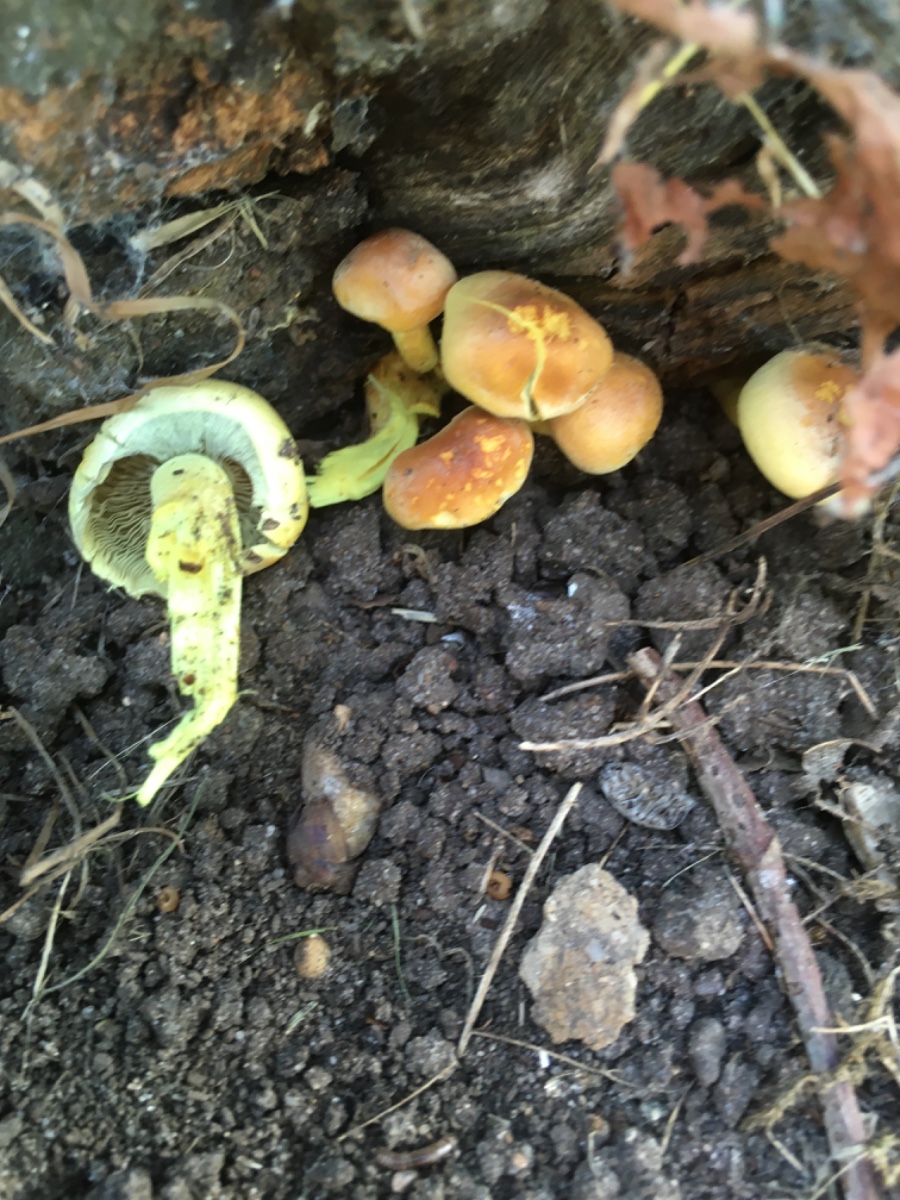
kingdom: Fungi
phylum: Basidiomycota
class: Agaricomycetes
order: Agaricales
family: Strophariaceae
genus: Hypholoma
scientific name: Hypholoma fasciculare
